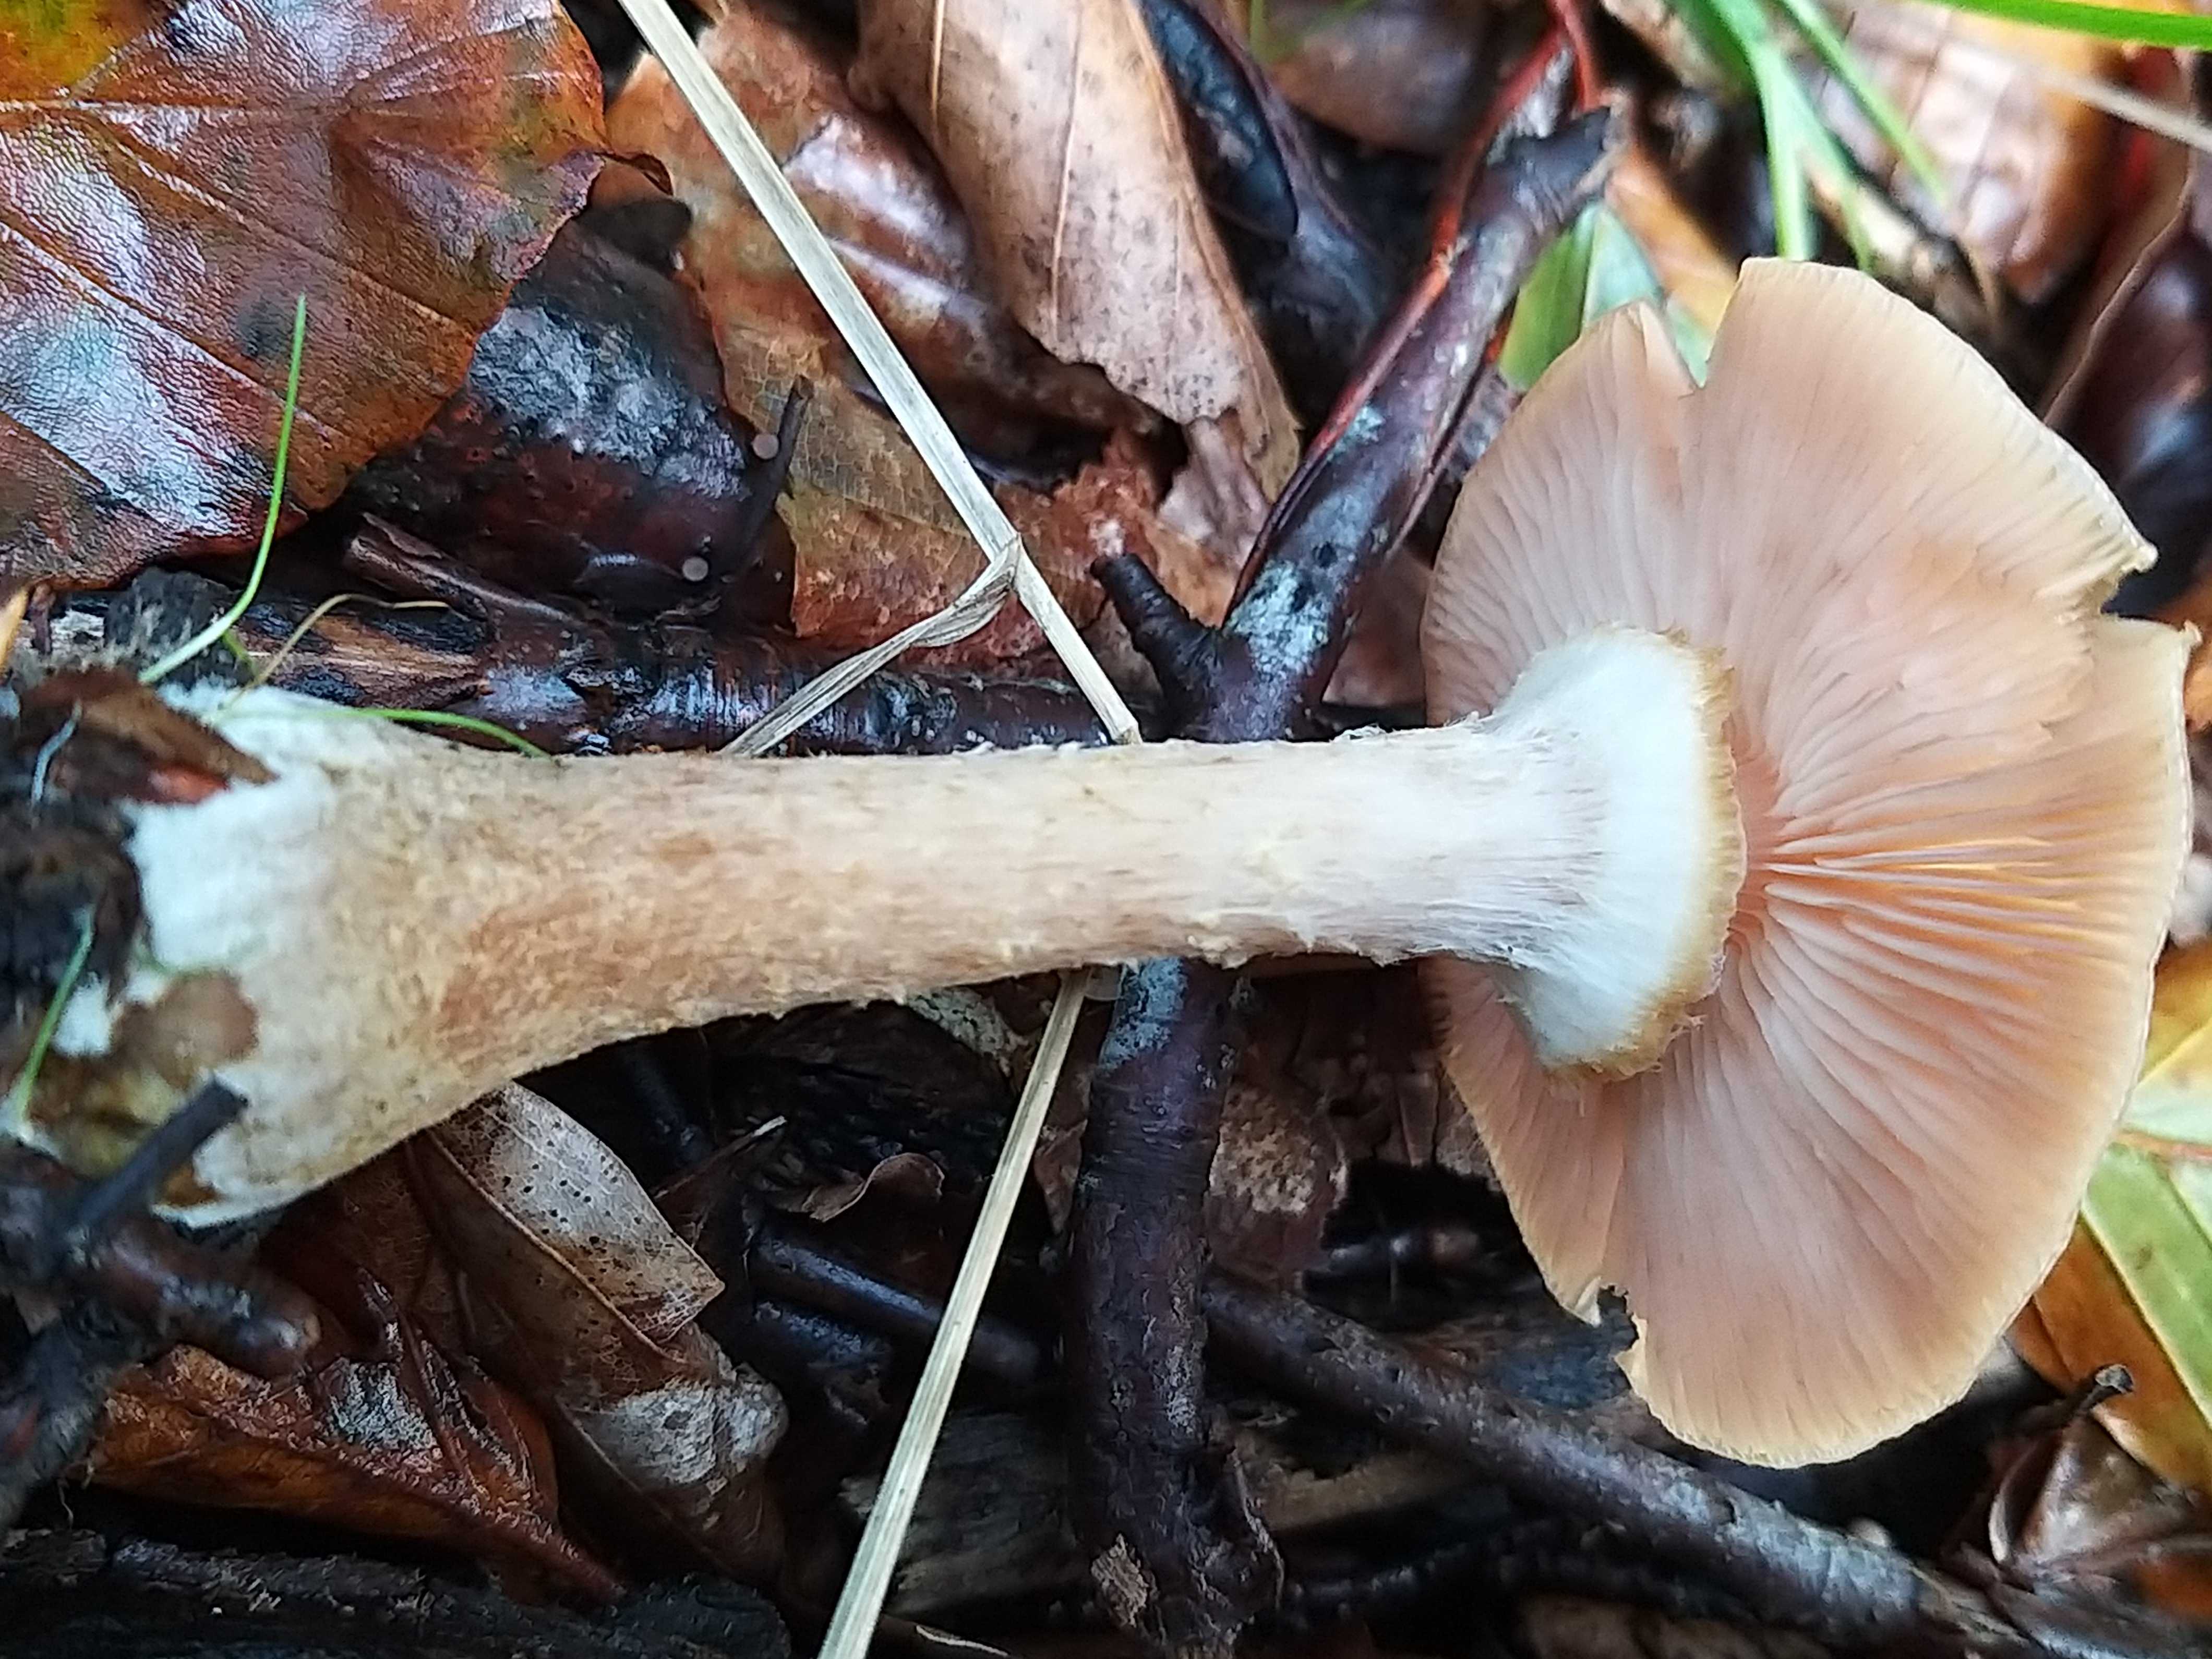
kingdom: Fungi
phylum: Basidiomycota
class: Agaricomycetes
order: Agaricales
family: Physalacriaceae
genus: Armillaria
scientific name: Armillaria lutea
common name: køllestokket honningsvamp
